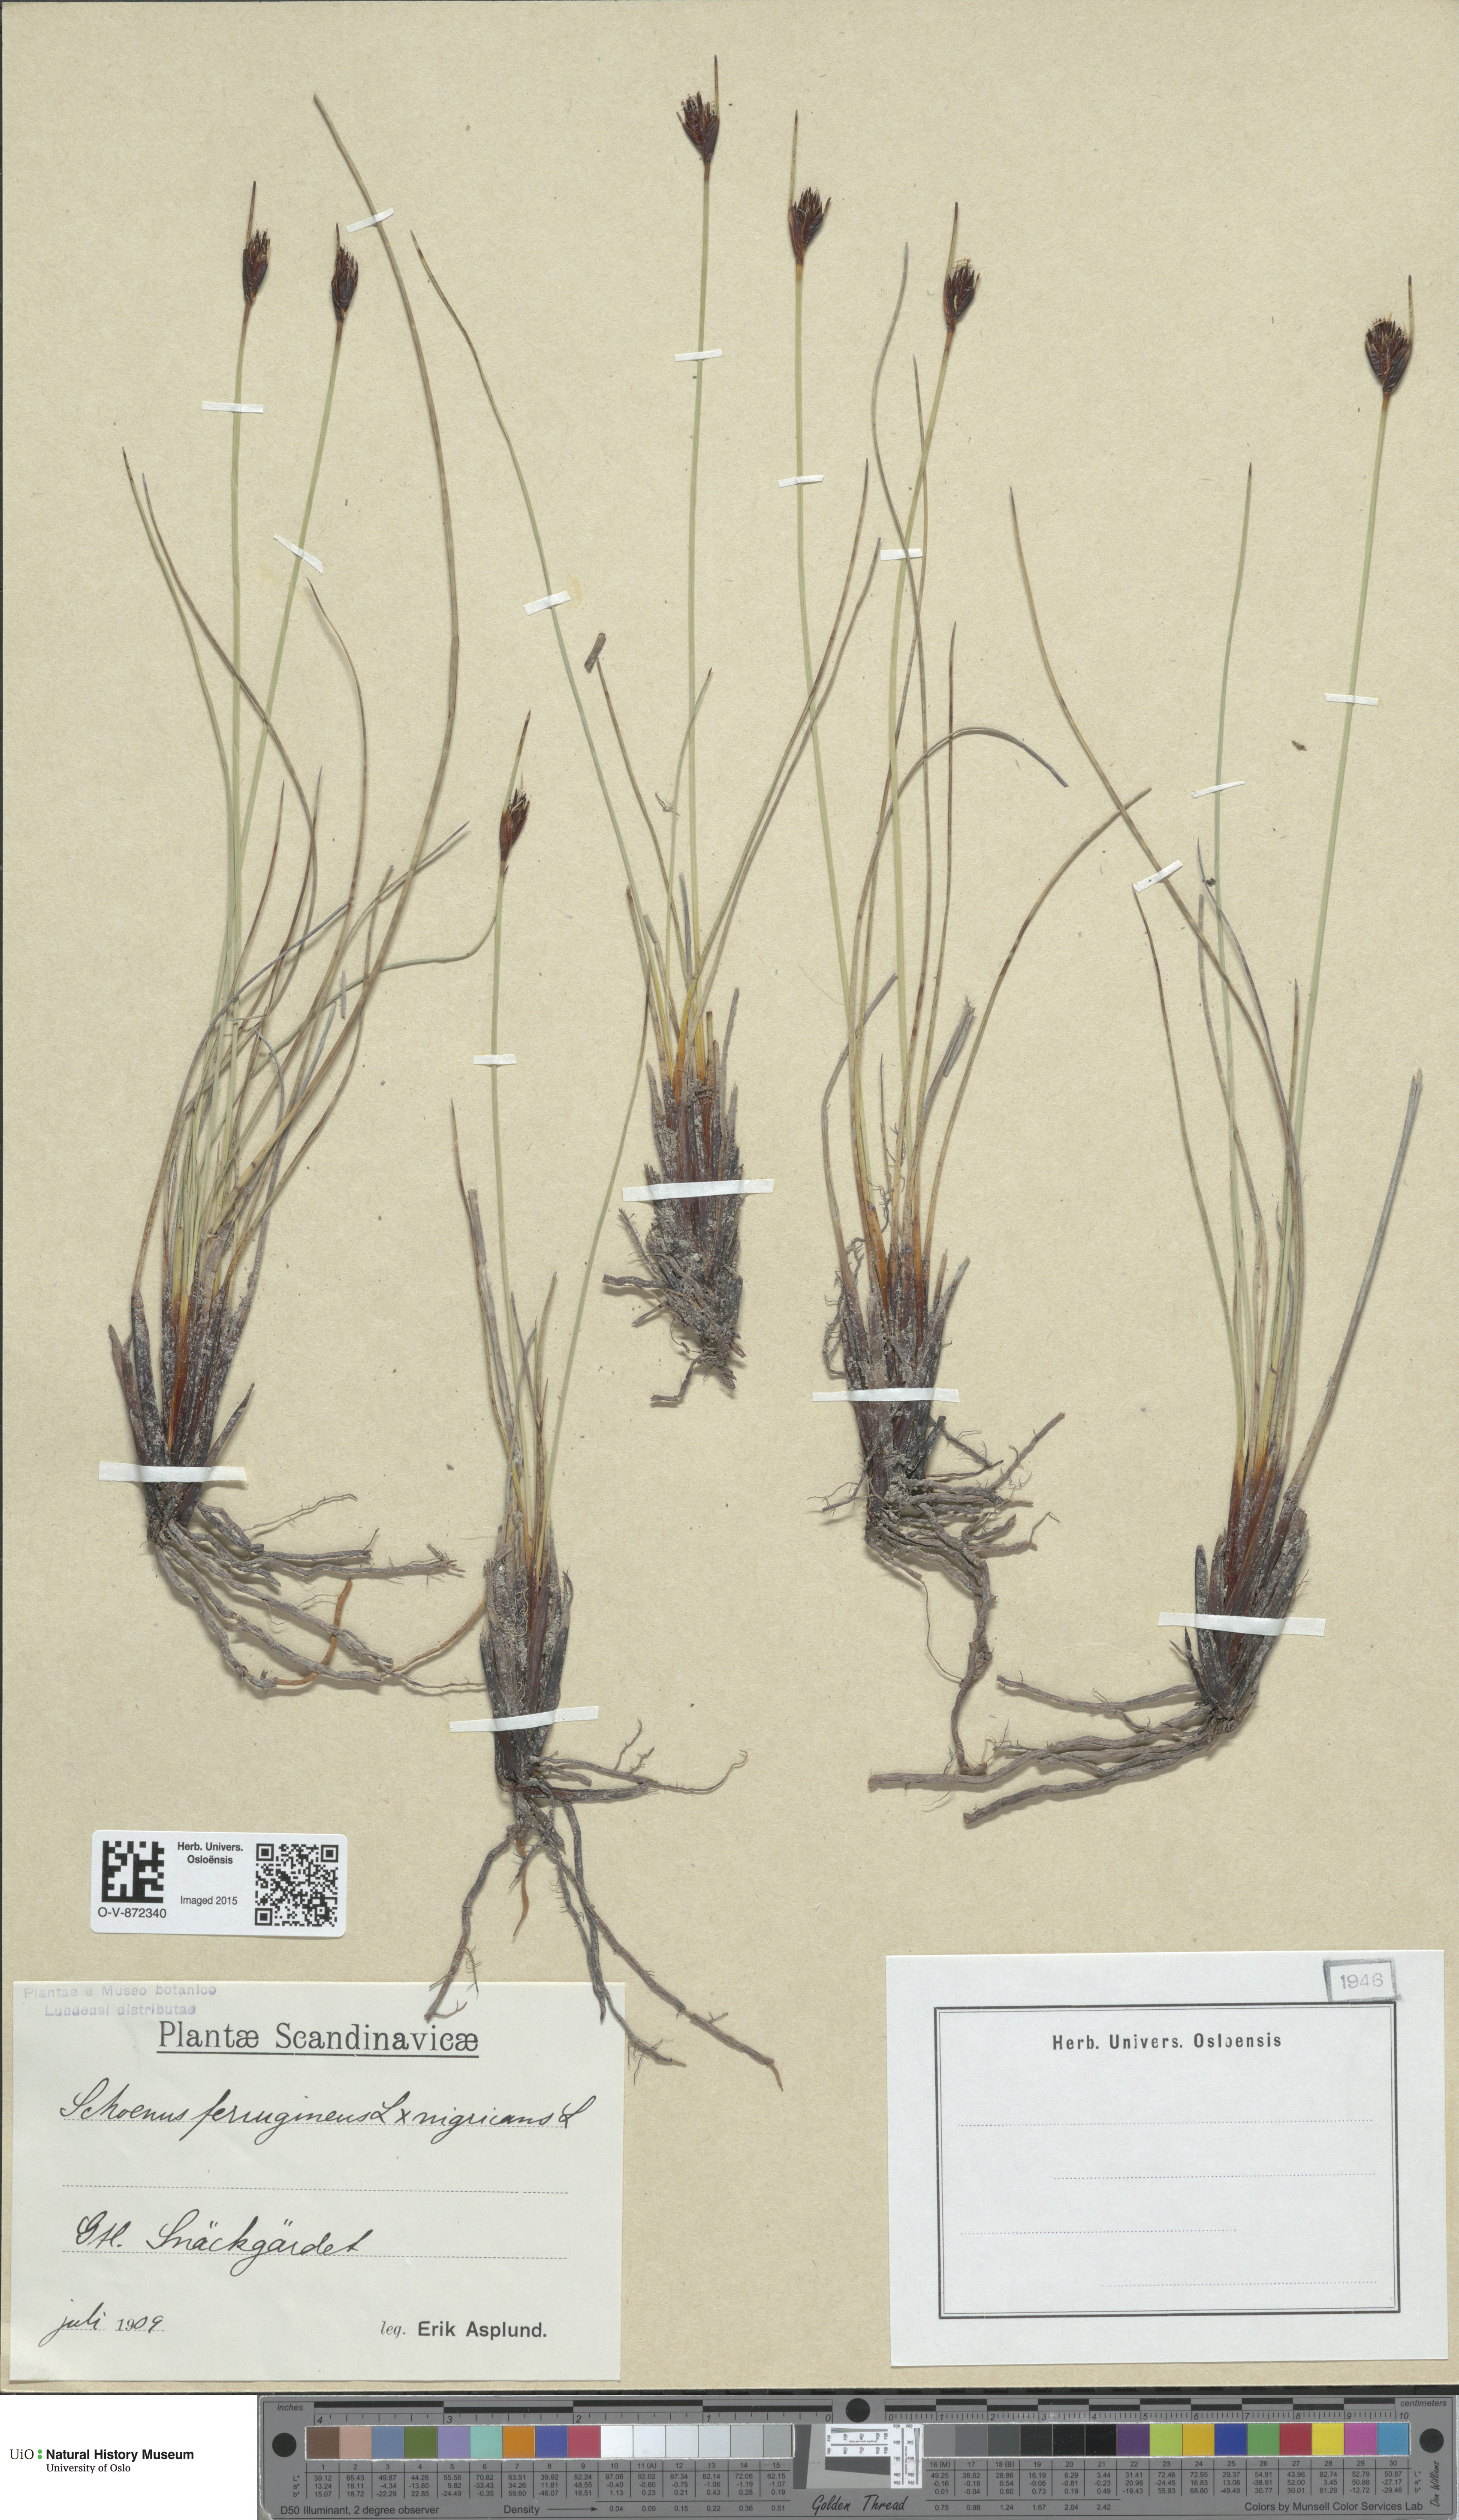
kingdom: Plantae
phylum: Tracheophyta
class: Liliopsida
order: Poales
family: Cyperaceae
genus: Schoenus
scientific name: Schoenus
